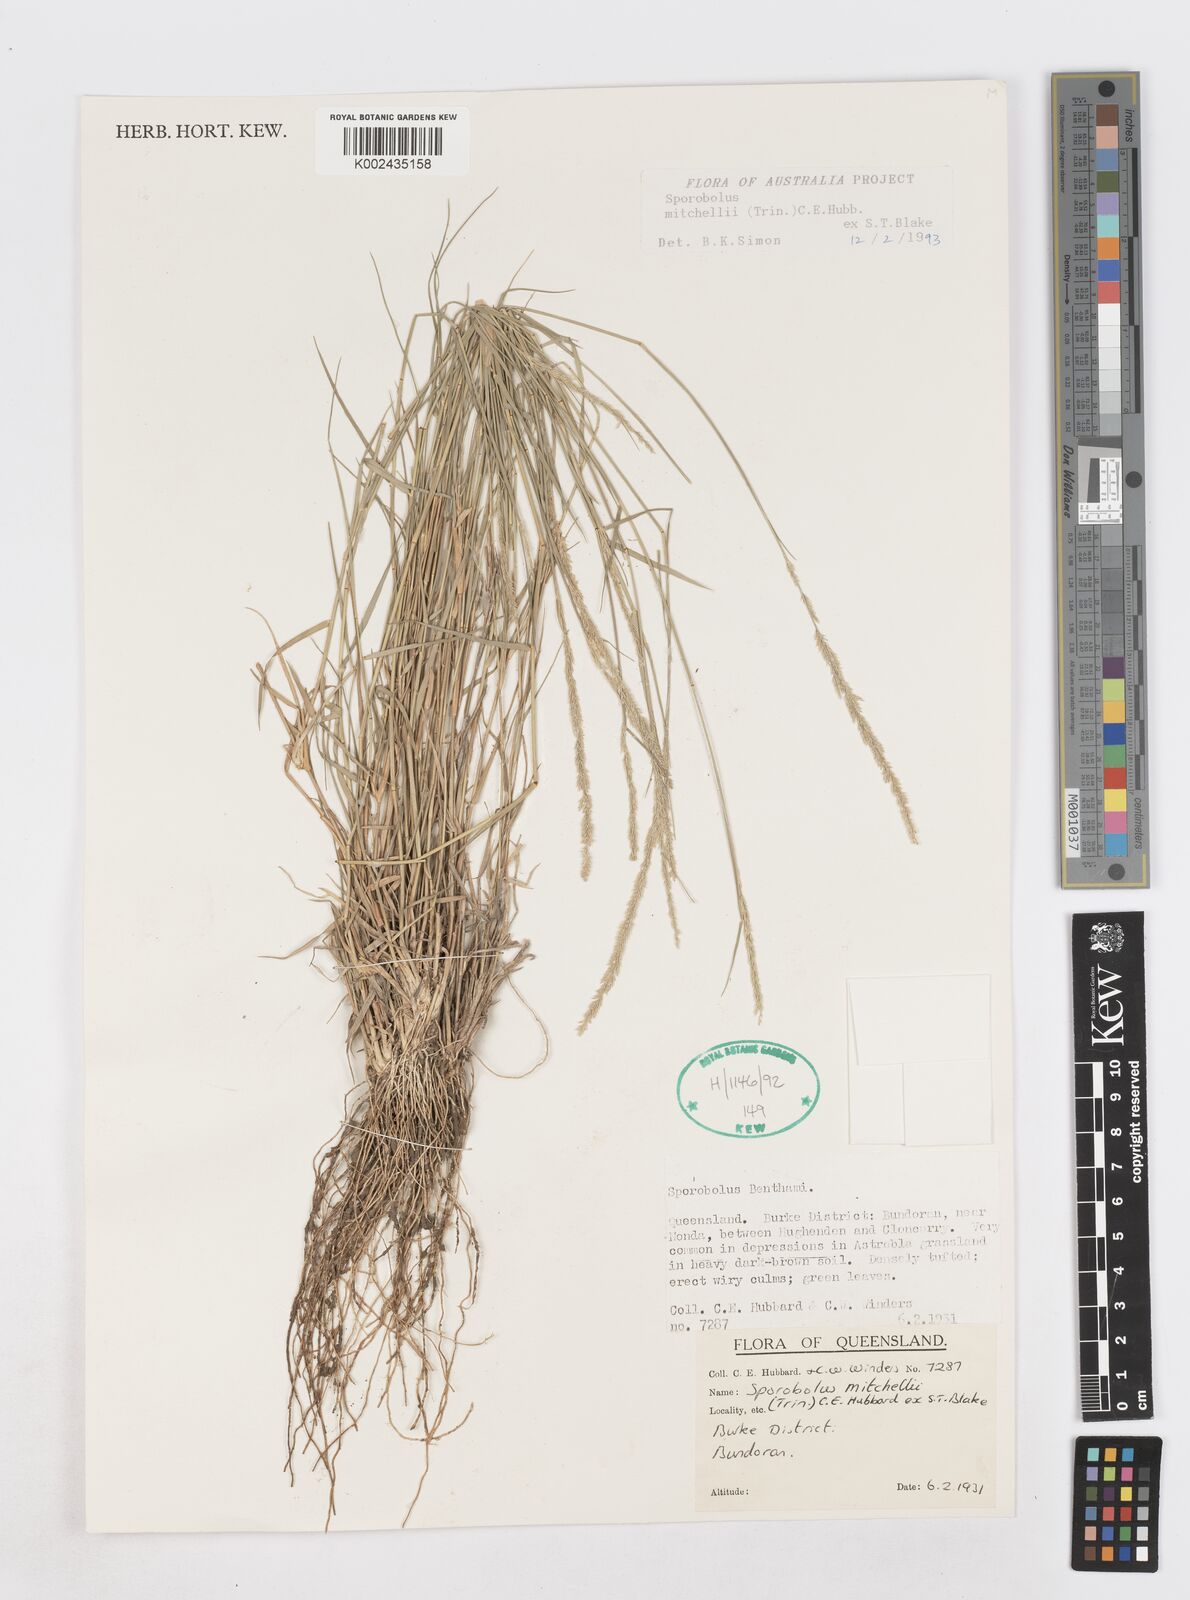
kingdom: Plantae
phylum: Tracheophyta
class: Liliopsida
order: Poales
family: Poaceae
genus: Sporobolus
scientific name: Sporobolus mitchellii
